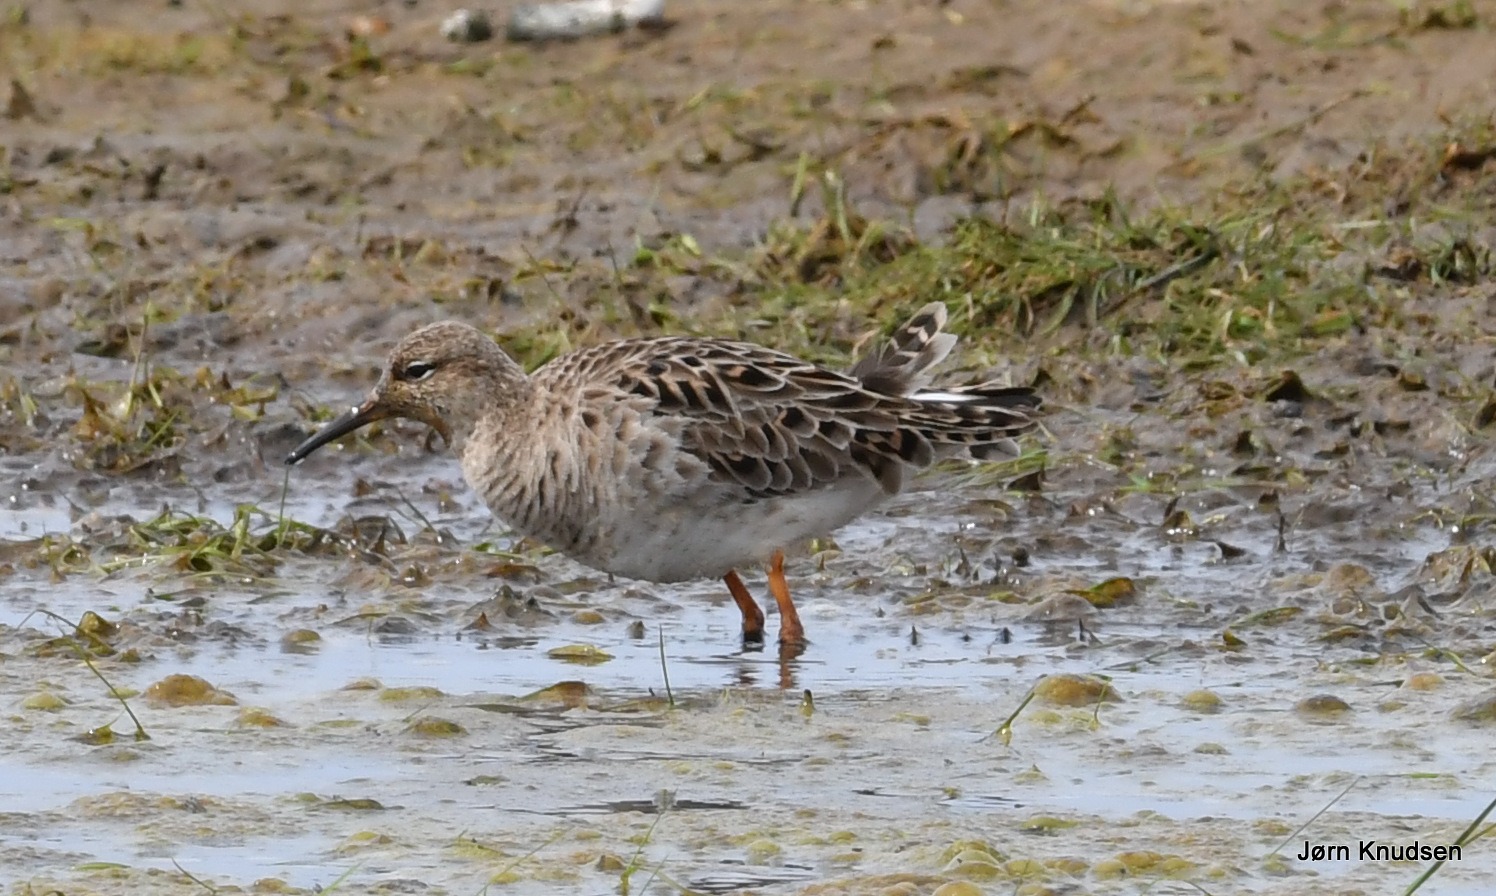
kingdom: Animalia
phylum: Chordata
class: Aves
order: Charadriiformes
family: Scolopacidae
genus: Calidris
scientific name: Calidris pugnax
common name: Brushane
